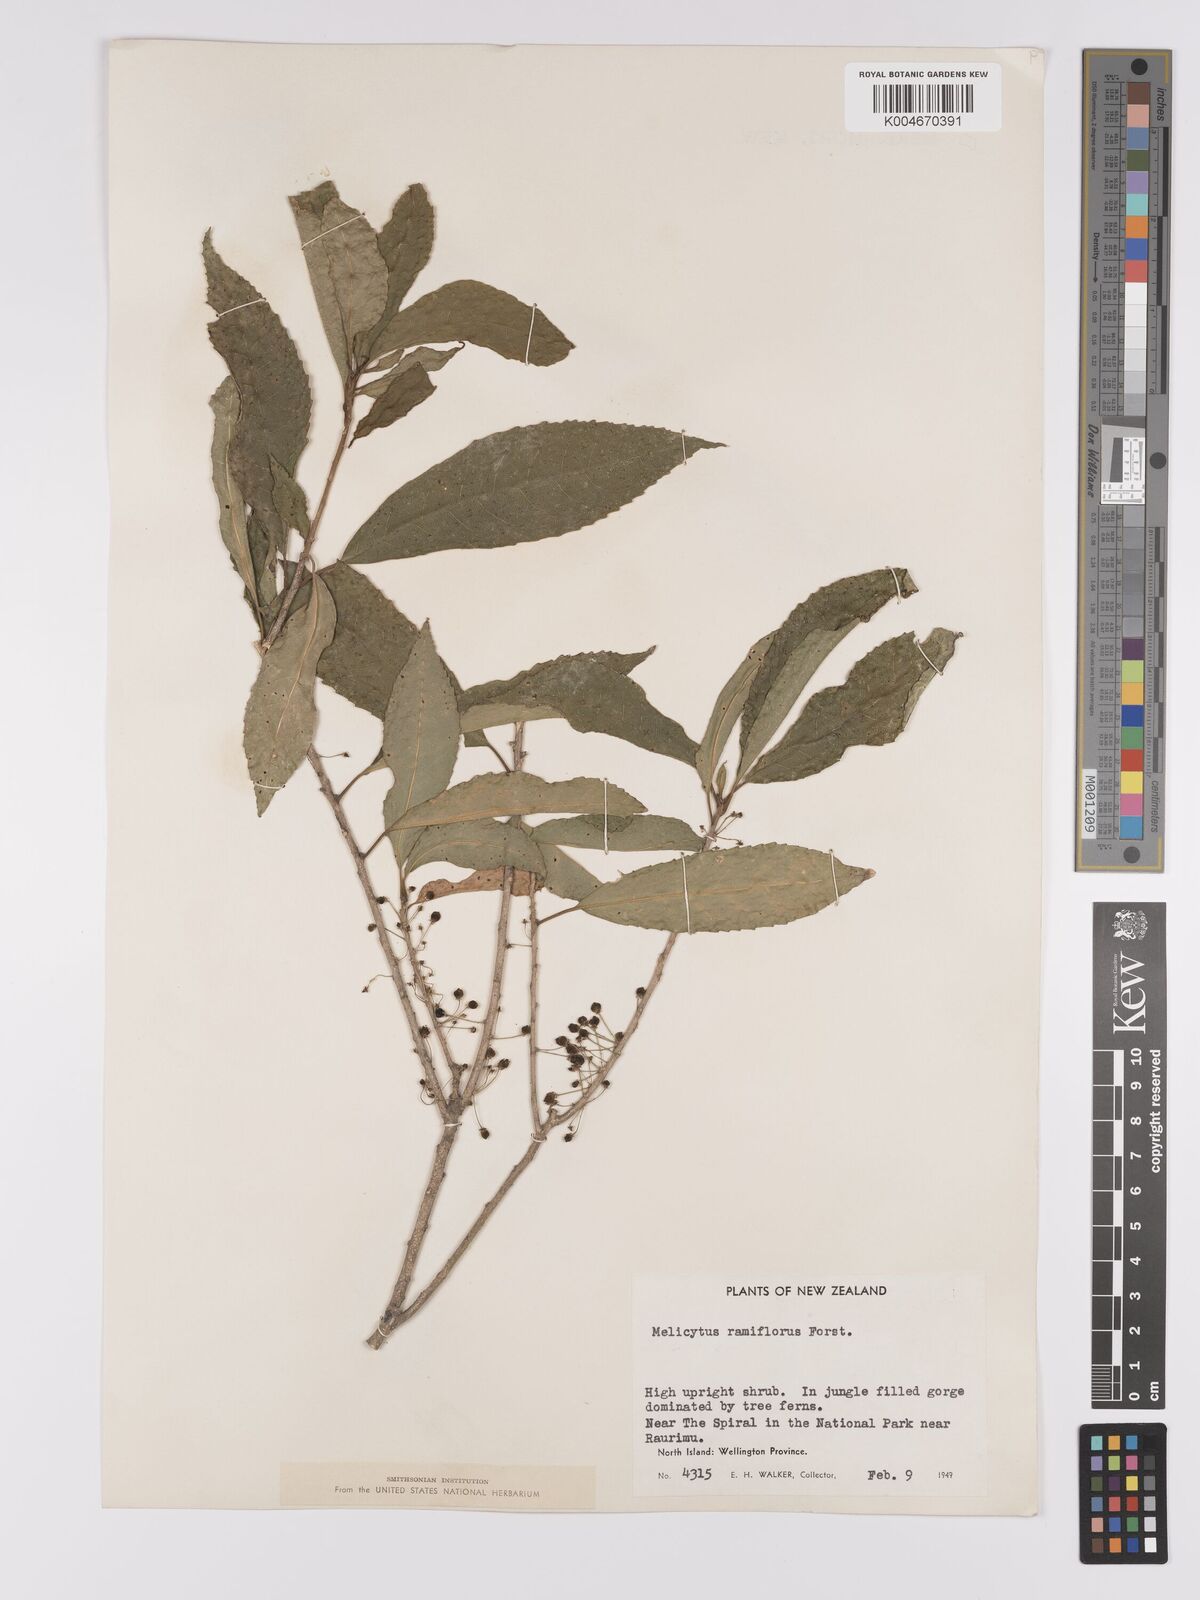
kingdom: Plantae
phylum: Tracheophyta
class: Magnoliopsida
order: Malpighiales
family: Violaceae
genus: Melicytus
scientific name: Melicytus ramiflorus
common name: Mahoe
